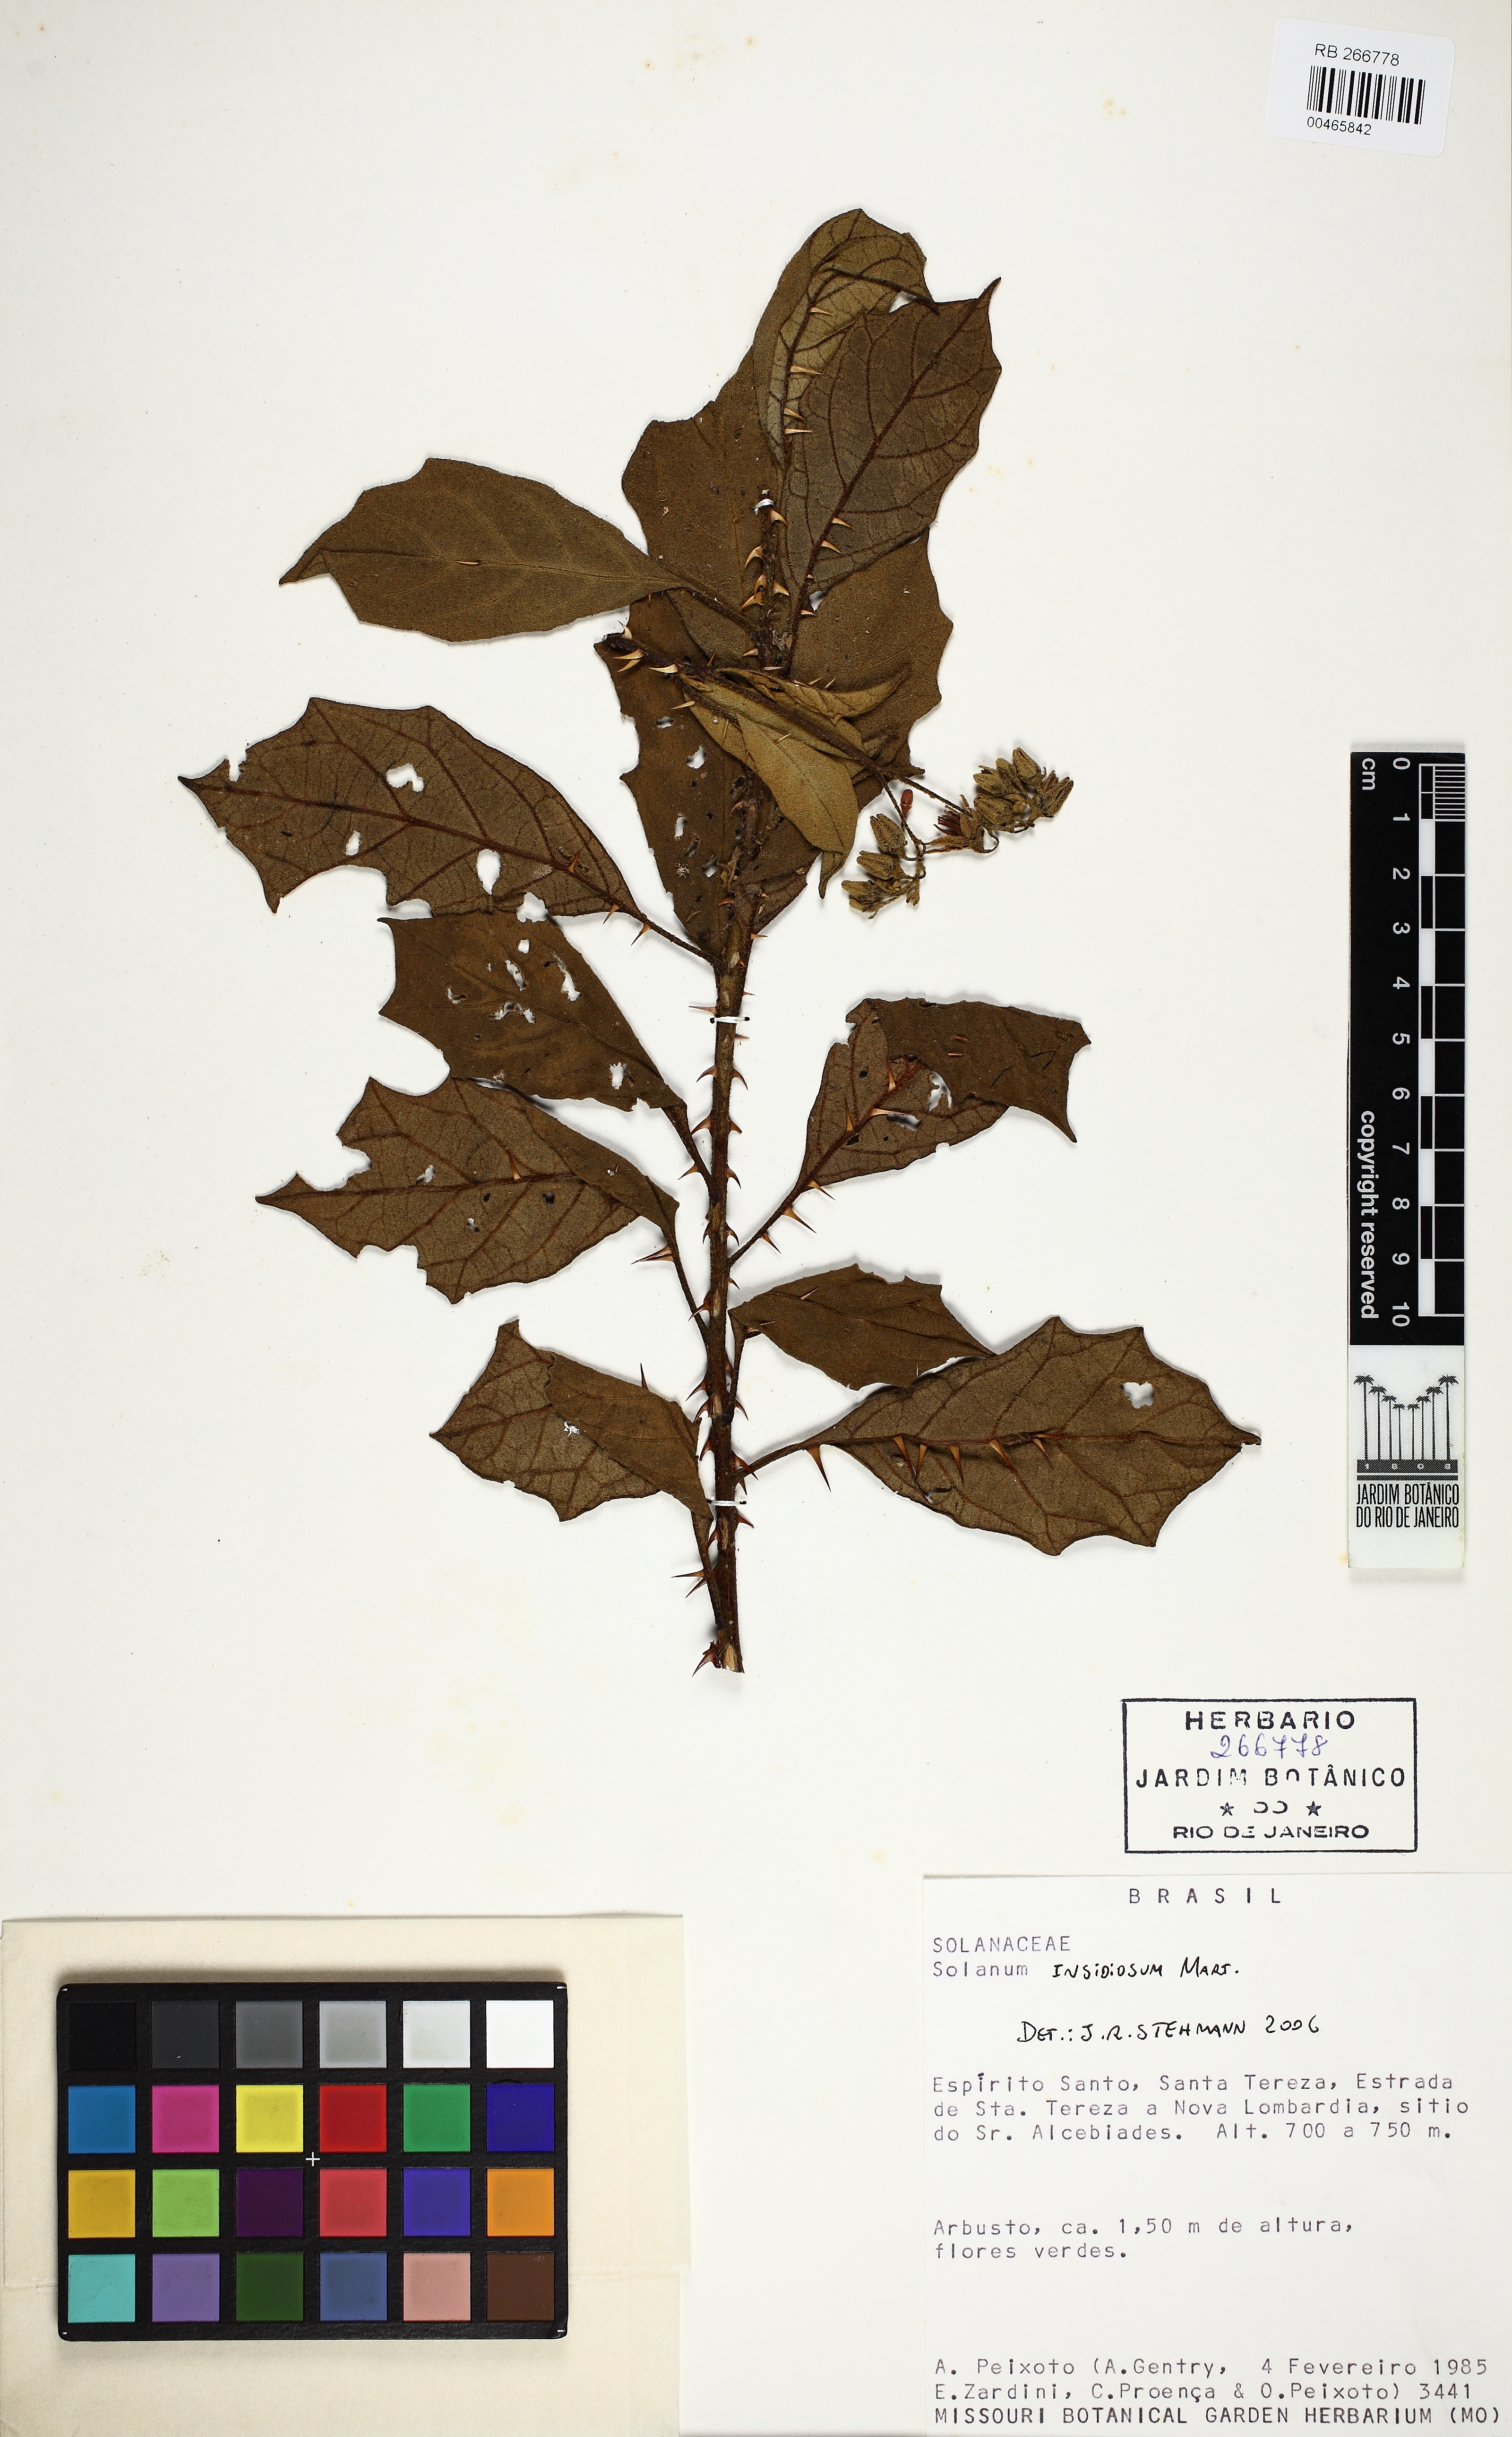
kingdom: Plantae
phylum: Tracheophyta
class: Magnoliopsida
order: Solanales
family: Solanaceae
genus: Solanum
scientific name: Solanum insidiosum
